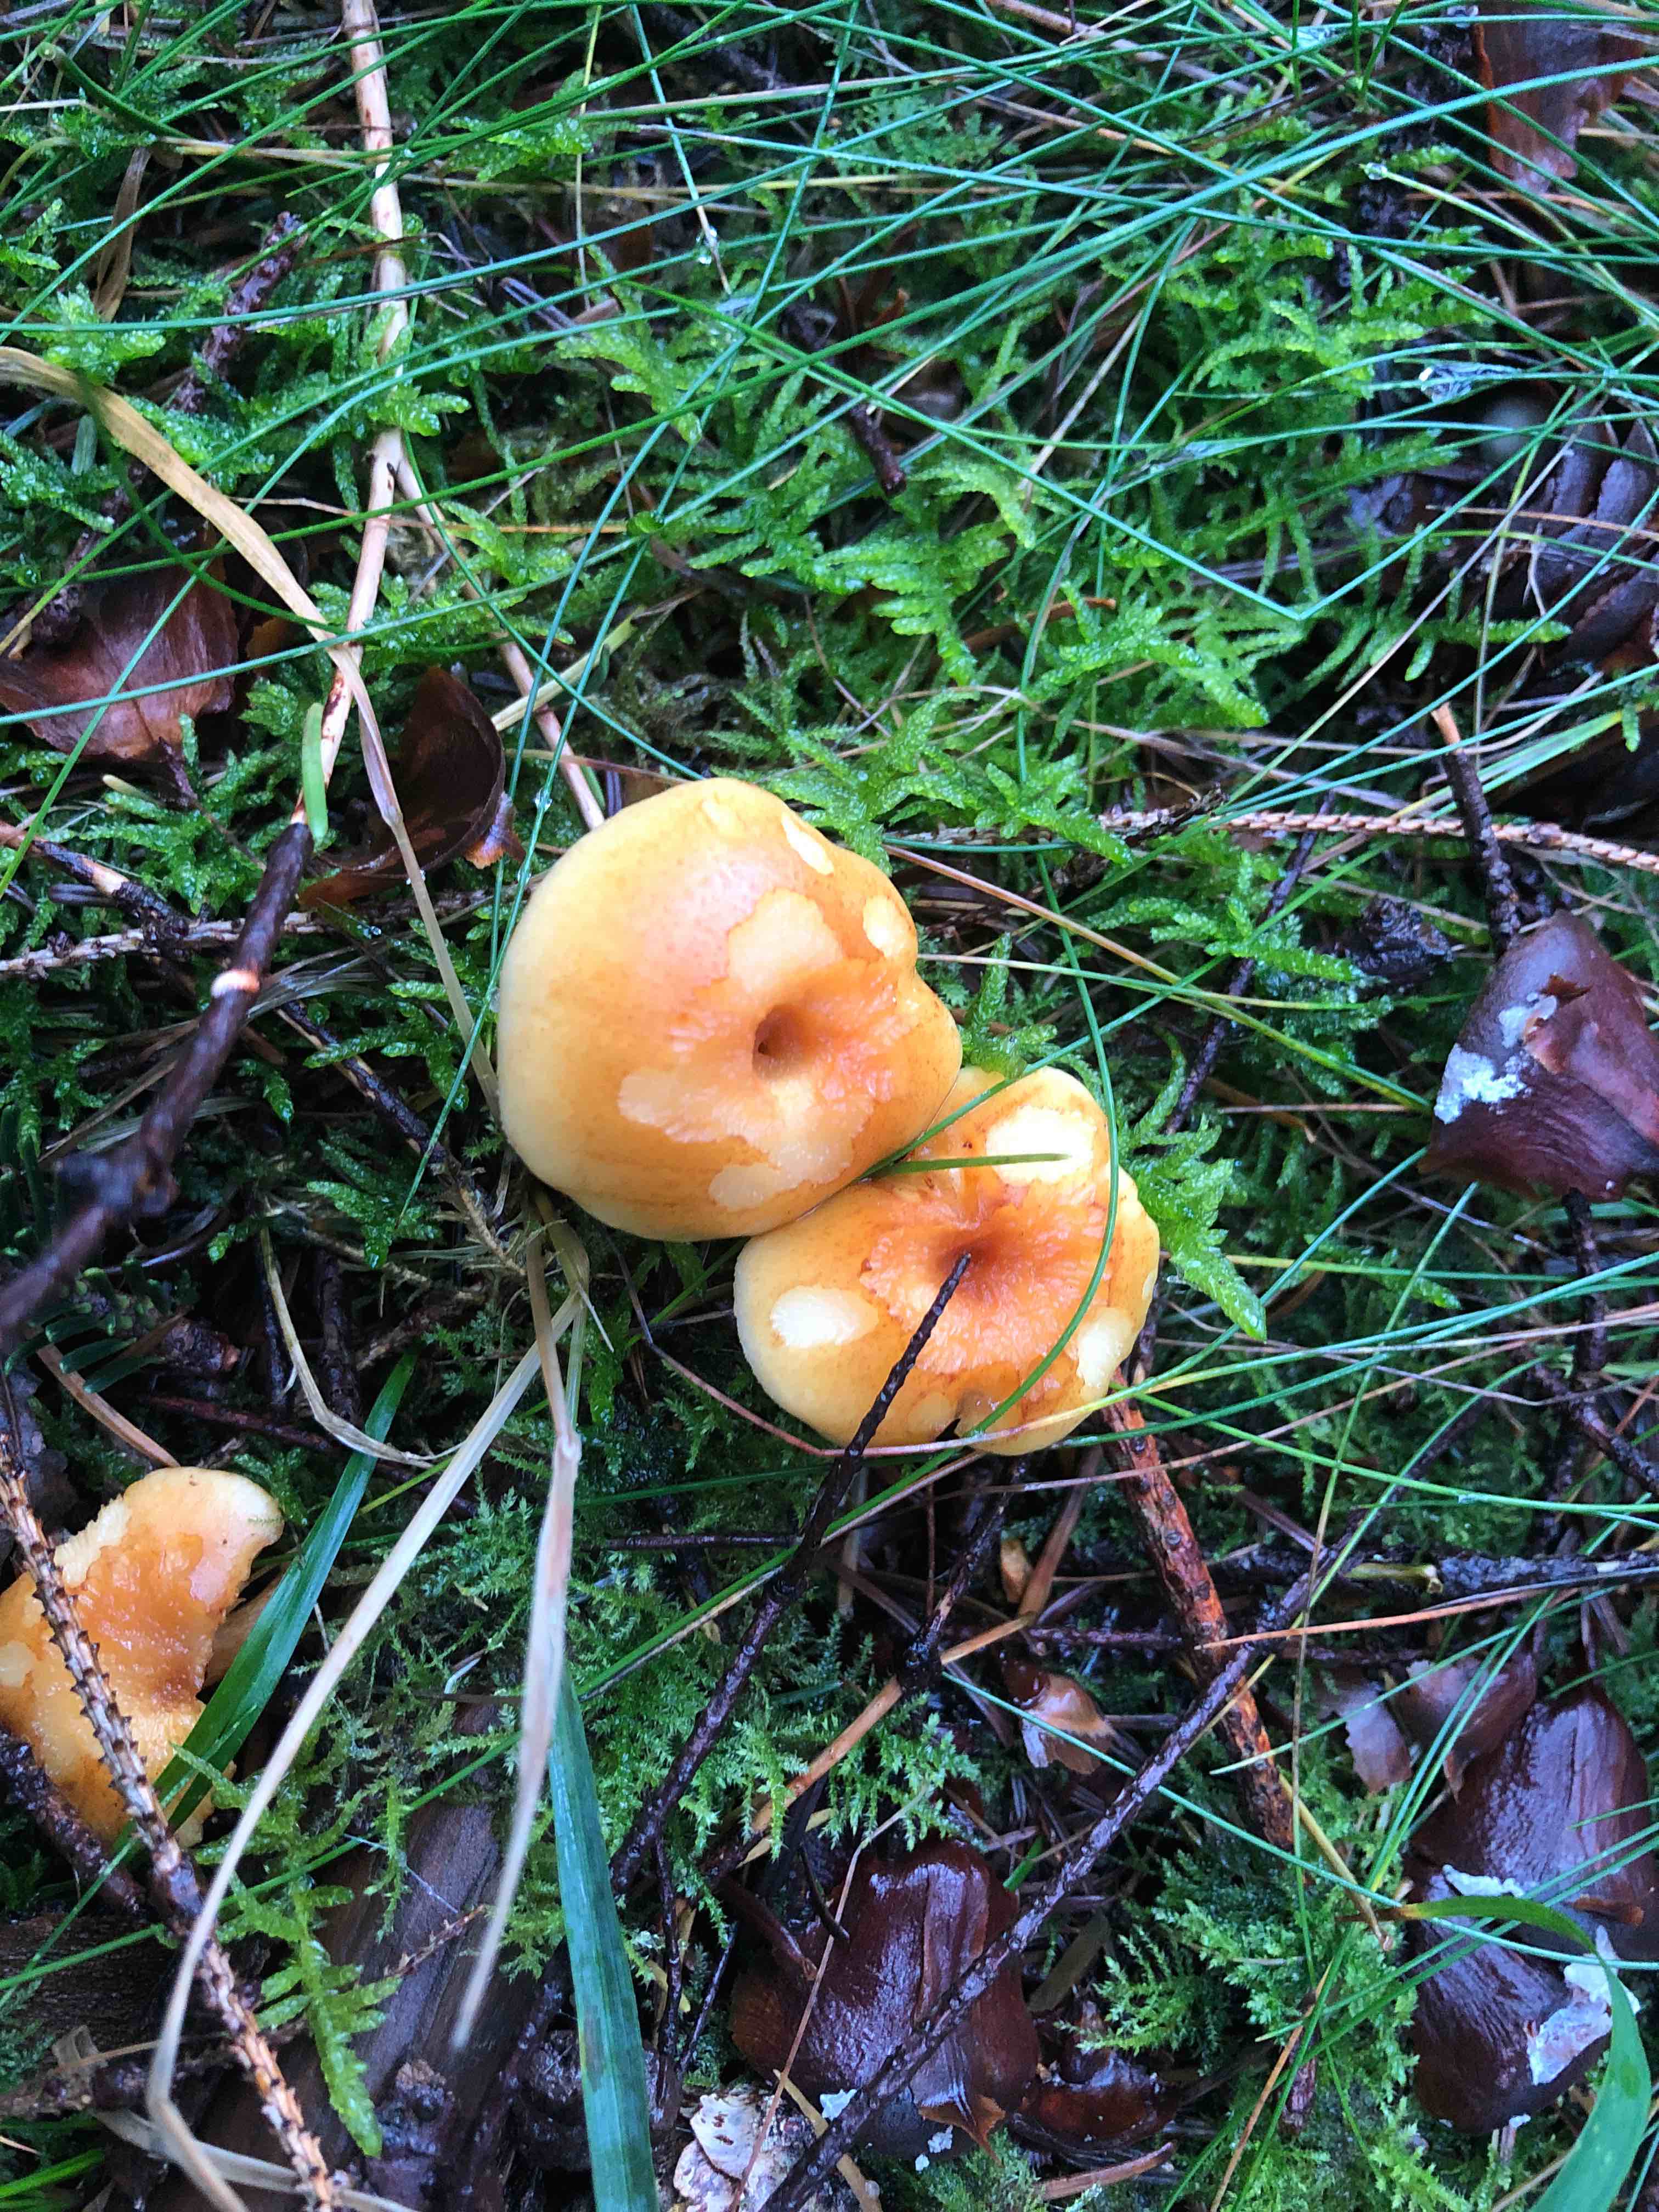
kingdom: Fungi
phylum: Basidiomycota
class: Agaricomycetes
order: Agaricales
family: Hymenogastraceae
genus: Gymnopilus
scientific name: Gymnopilus penetrans
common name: plettet flammehat
